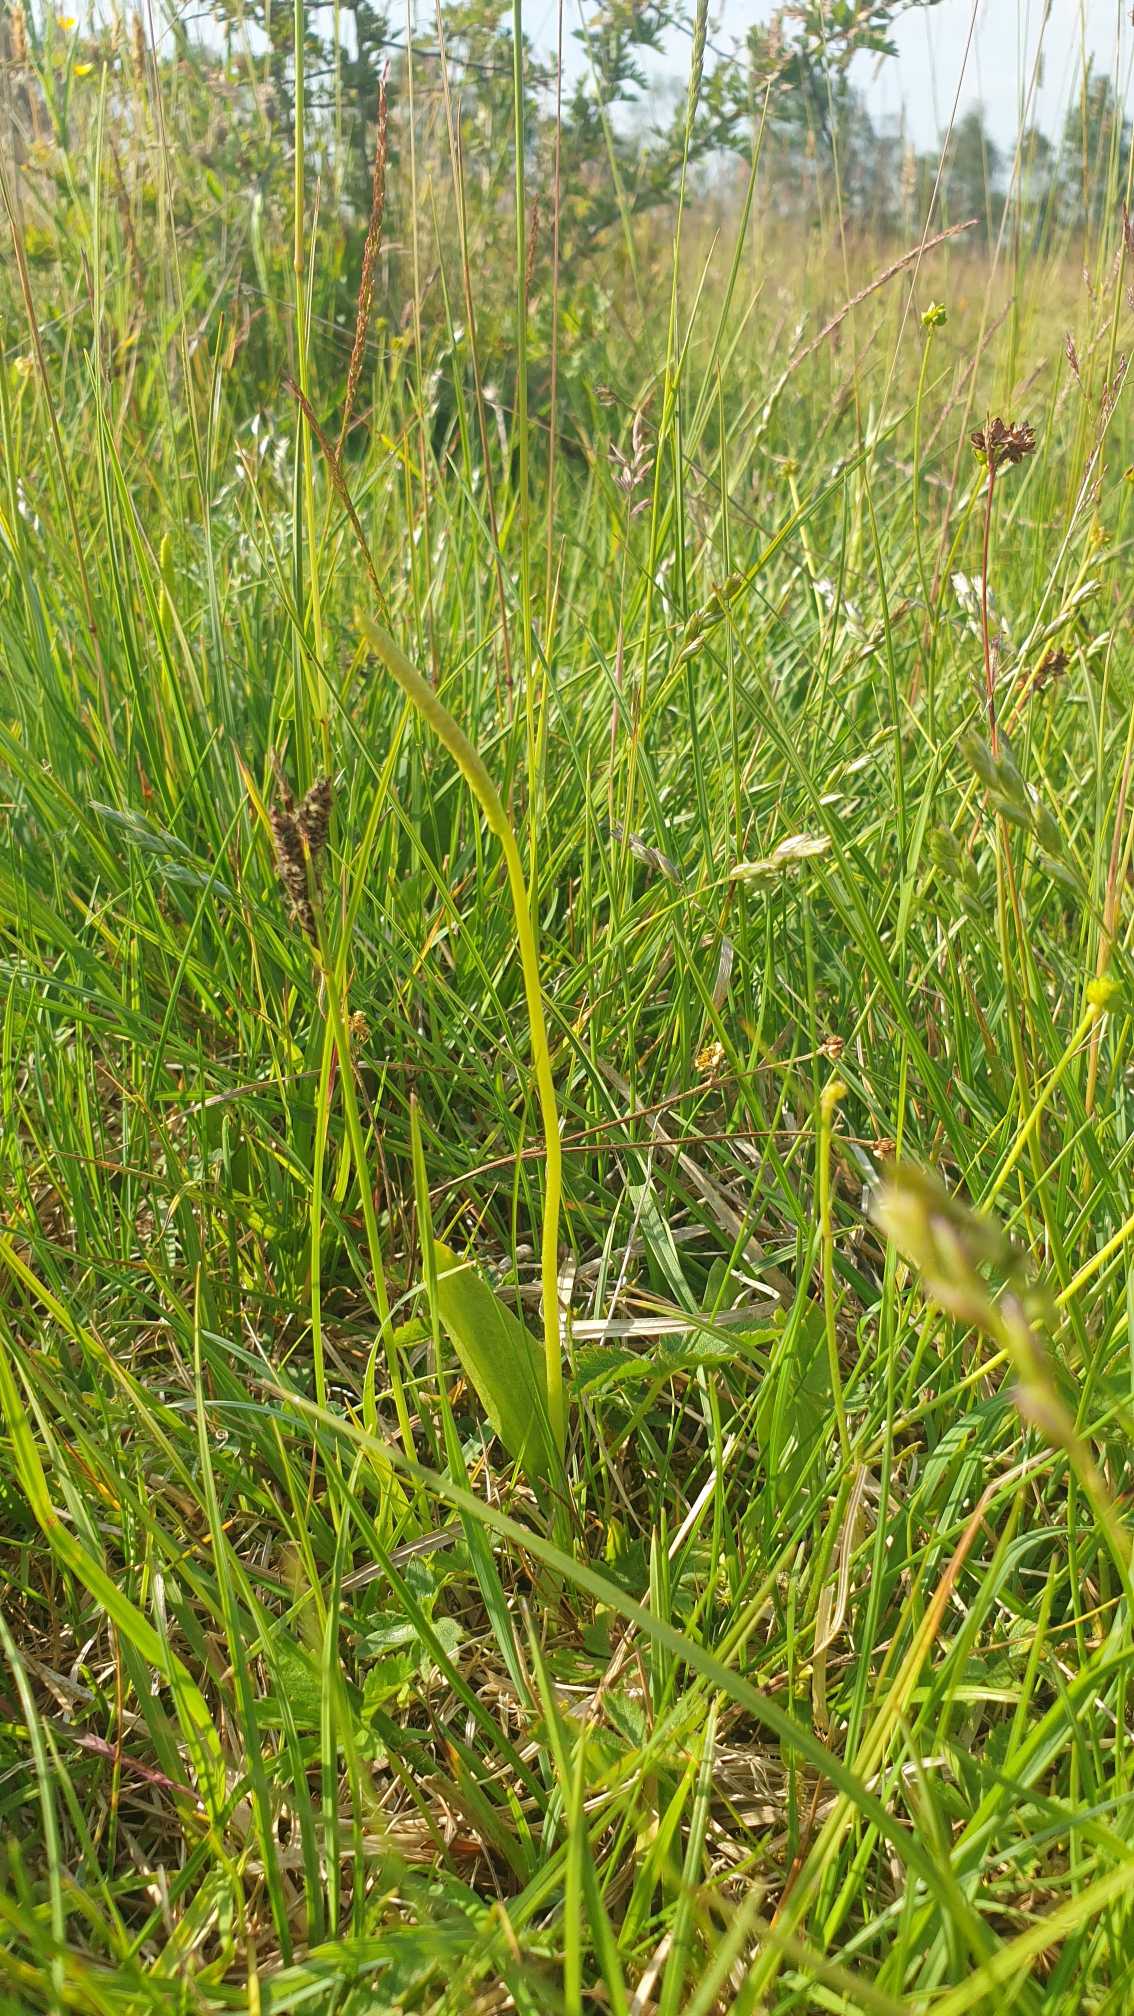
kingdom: Plantae
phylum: Tracheophyta
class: Polypodiopsida
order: Ophioglossales
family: Ophioglossaceae
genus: Ophioglossum
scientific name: Ophioglossum vulgatum
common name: Slangetunge
